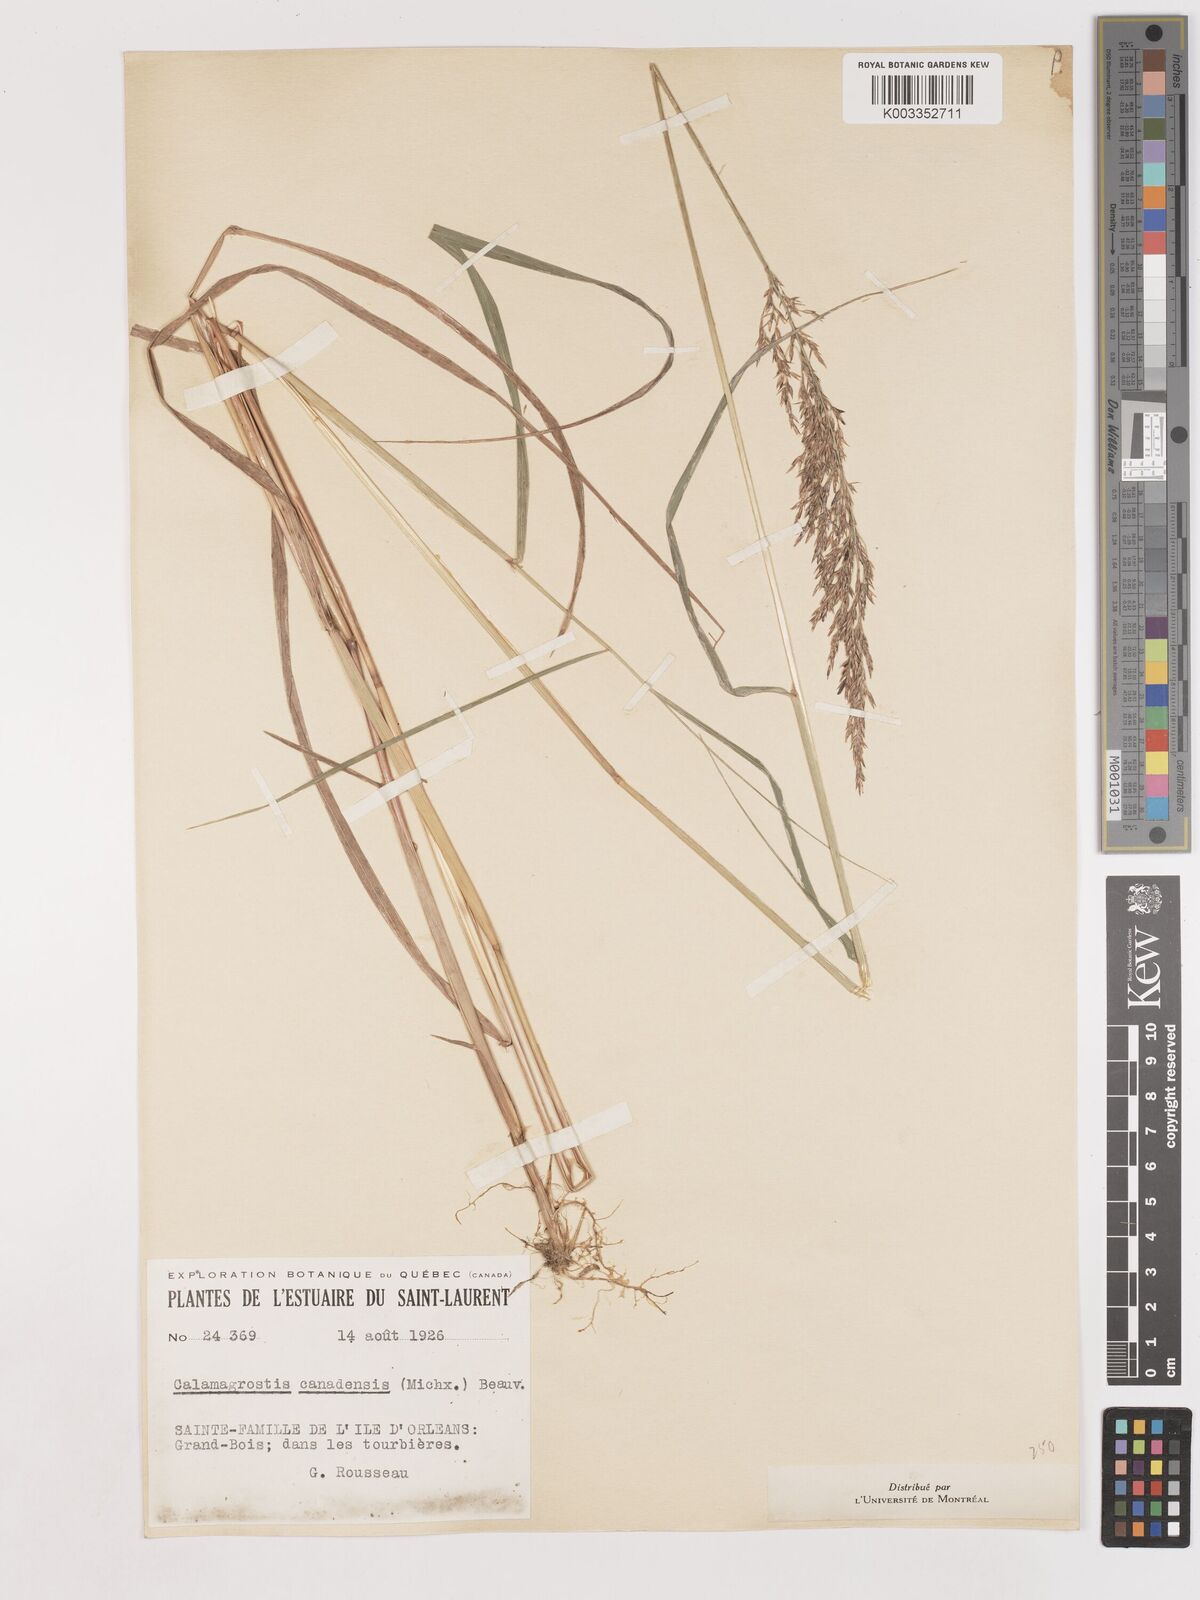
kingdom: Plantae
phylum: Tracheophyta
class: Liliopsida
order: Poales
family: Poaceae
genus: Calamagrostis
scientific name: Calamagrostis canadensis
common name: Canada bluejoint
